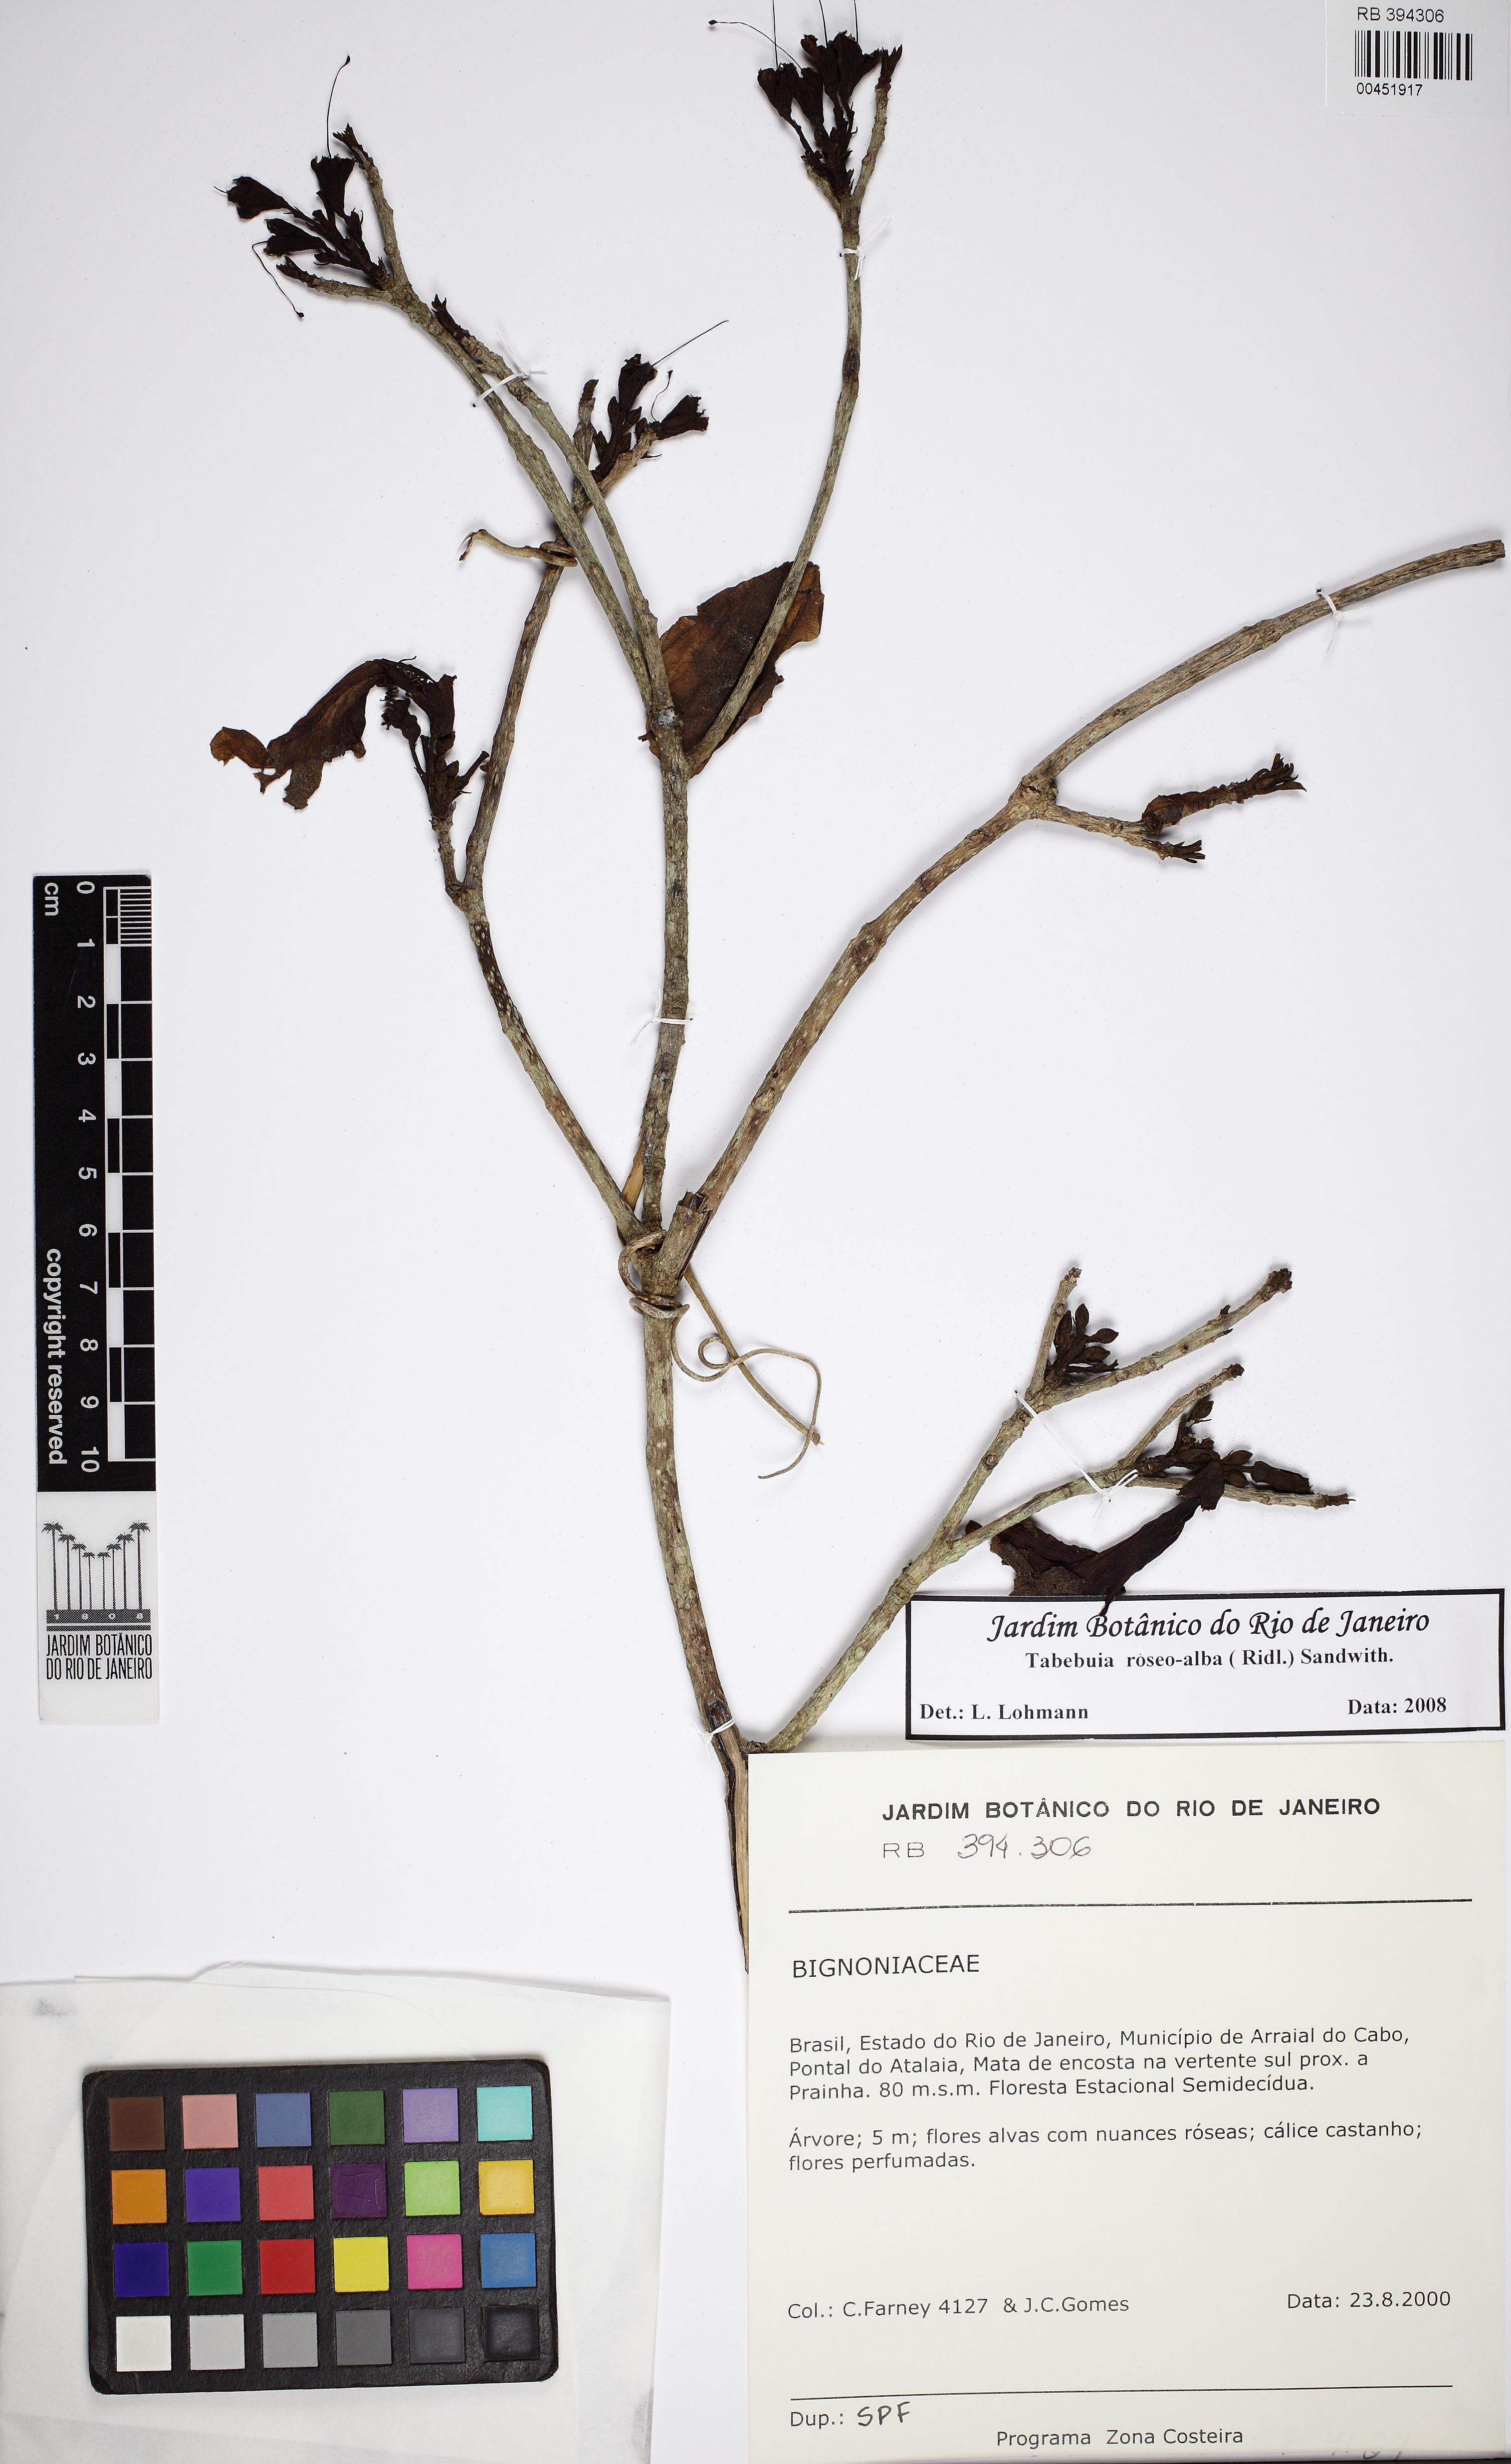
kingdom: Plantae
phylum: Tracheophyta
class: Magnoliopsida
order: Lamiales
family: Bignoniaceae
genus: Tabebuia
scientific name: Tabebuia roseoalba
